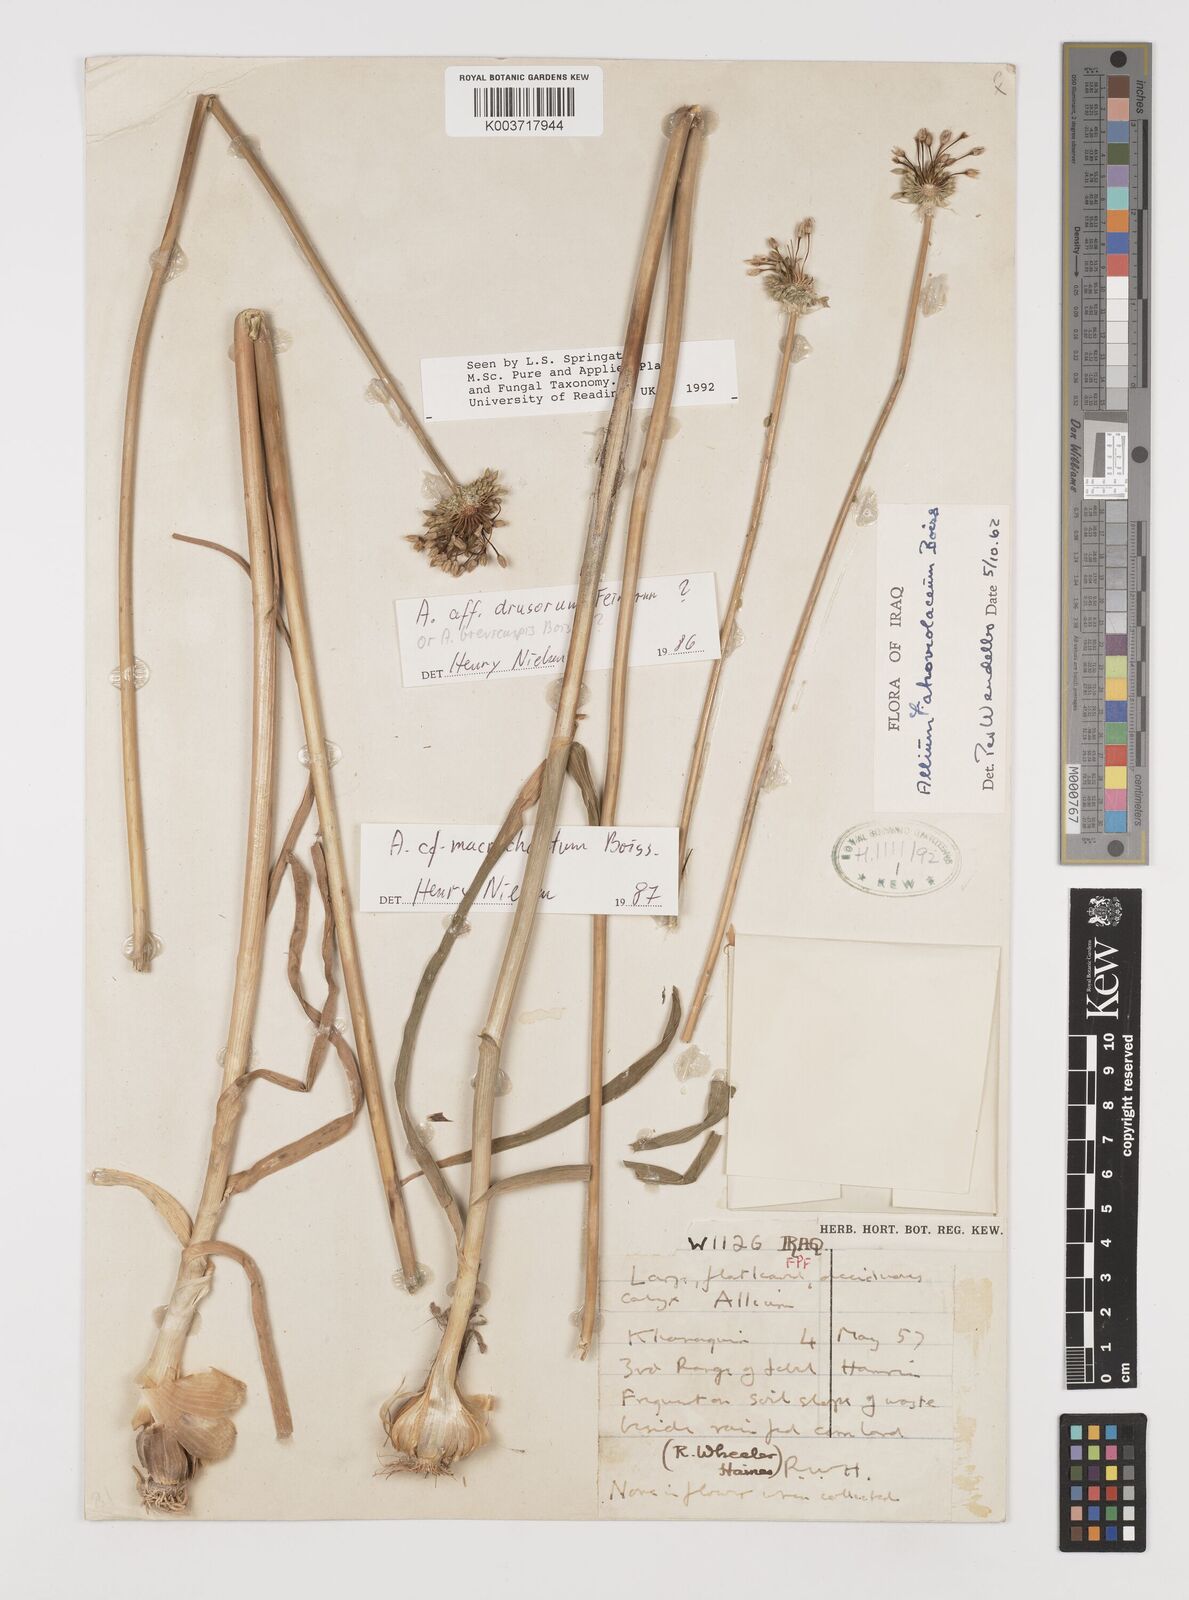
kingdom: Plantae
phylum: Tracheophyta
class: Liliopsida
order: Asparagales
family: Amaryllidaceae
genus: Allium
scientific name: Allium macrochaetum
